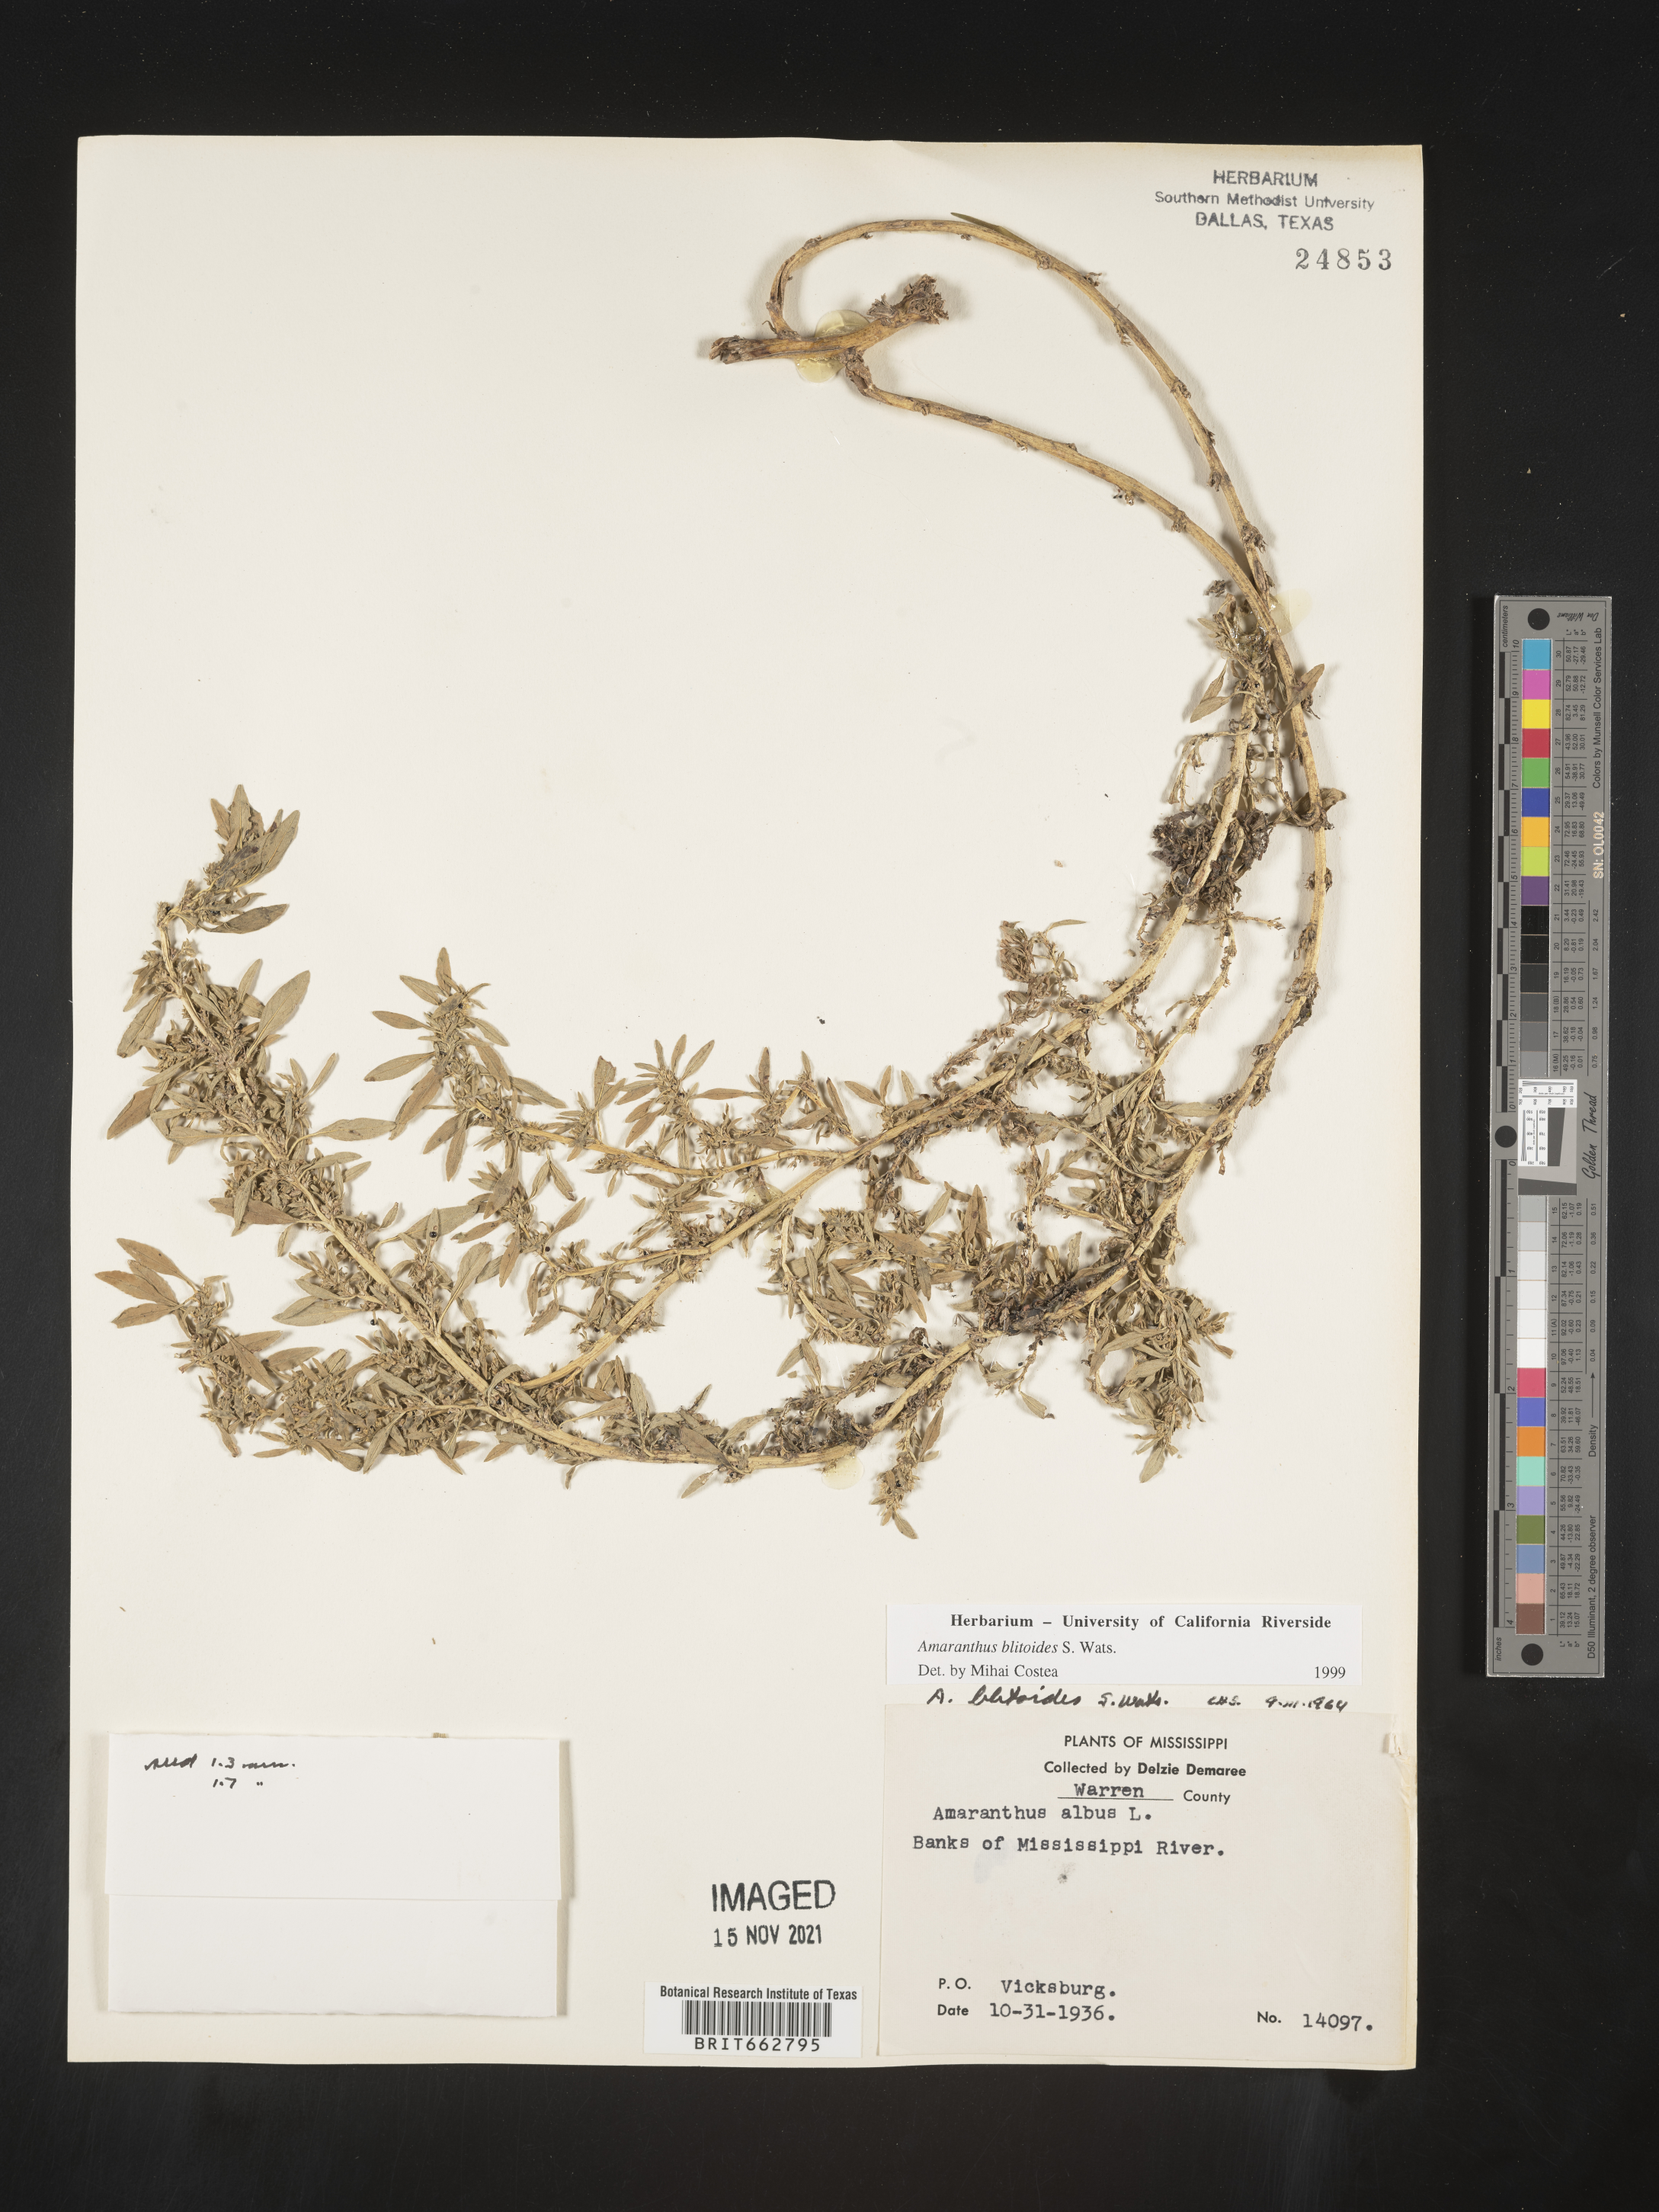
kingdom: Plantae
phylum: Tracheophyta
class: Magnoliopsida
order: Caryophyllales
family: Amaranthaceae
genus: Amaranthus
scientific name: Amaranthus blitoides
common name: Prostrate pigweed
